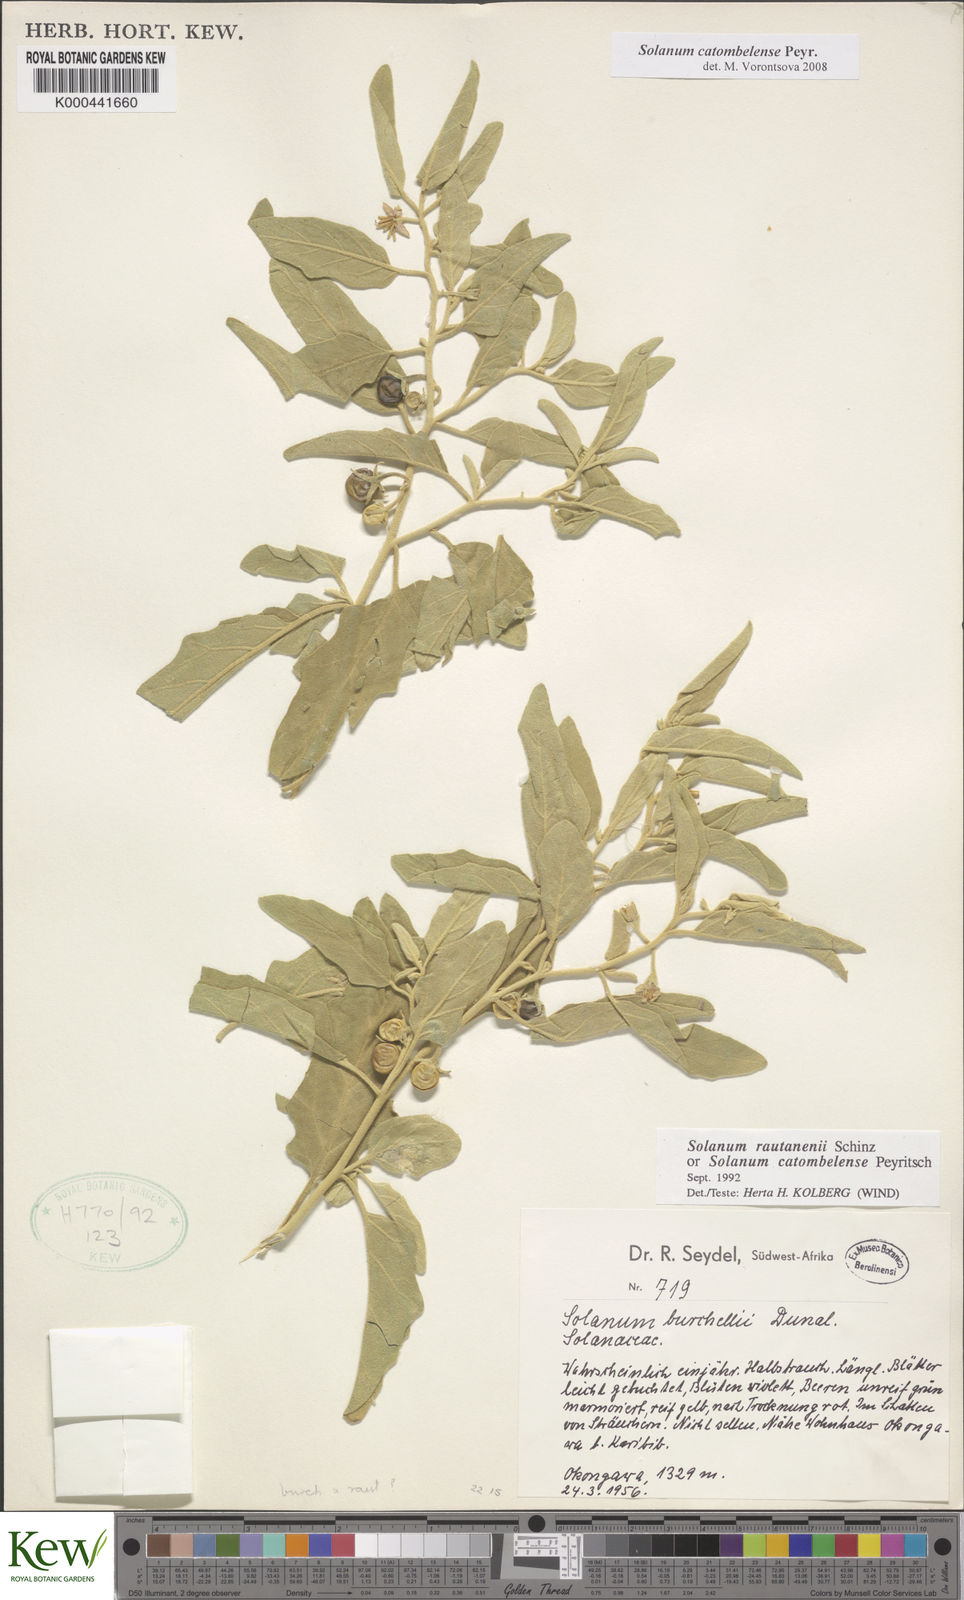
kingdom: Plantae
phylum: Tracheophyta
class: Magnoliopsida
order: Solanales
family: Solanaceae
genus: Solanum
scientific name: Solanum catombelense
